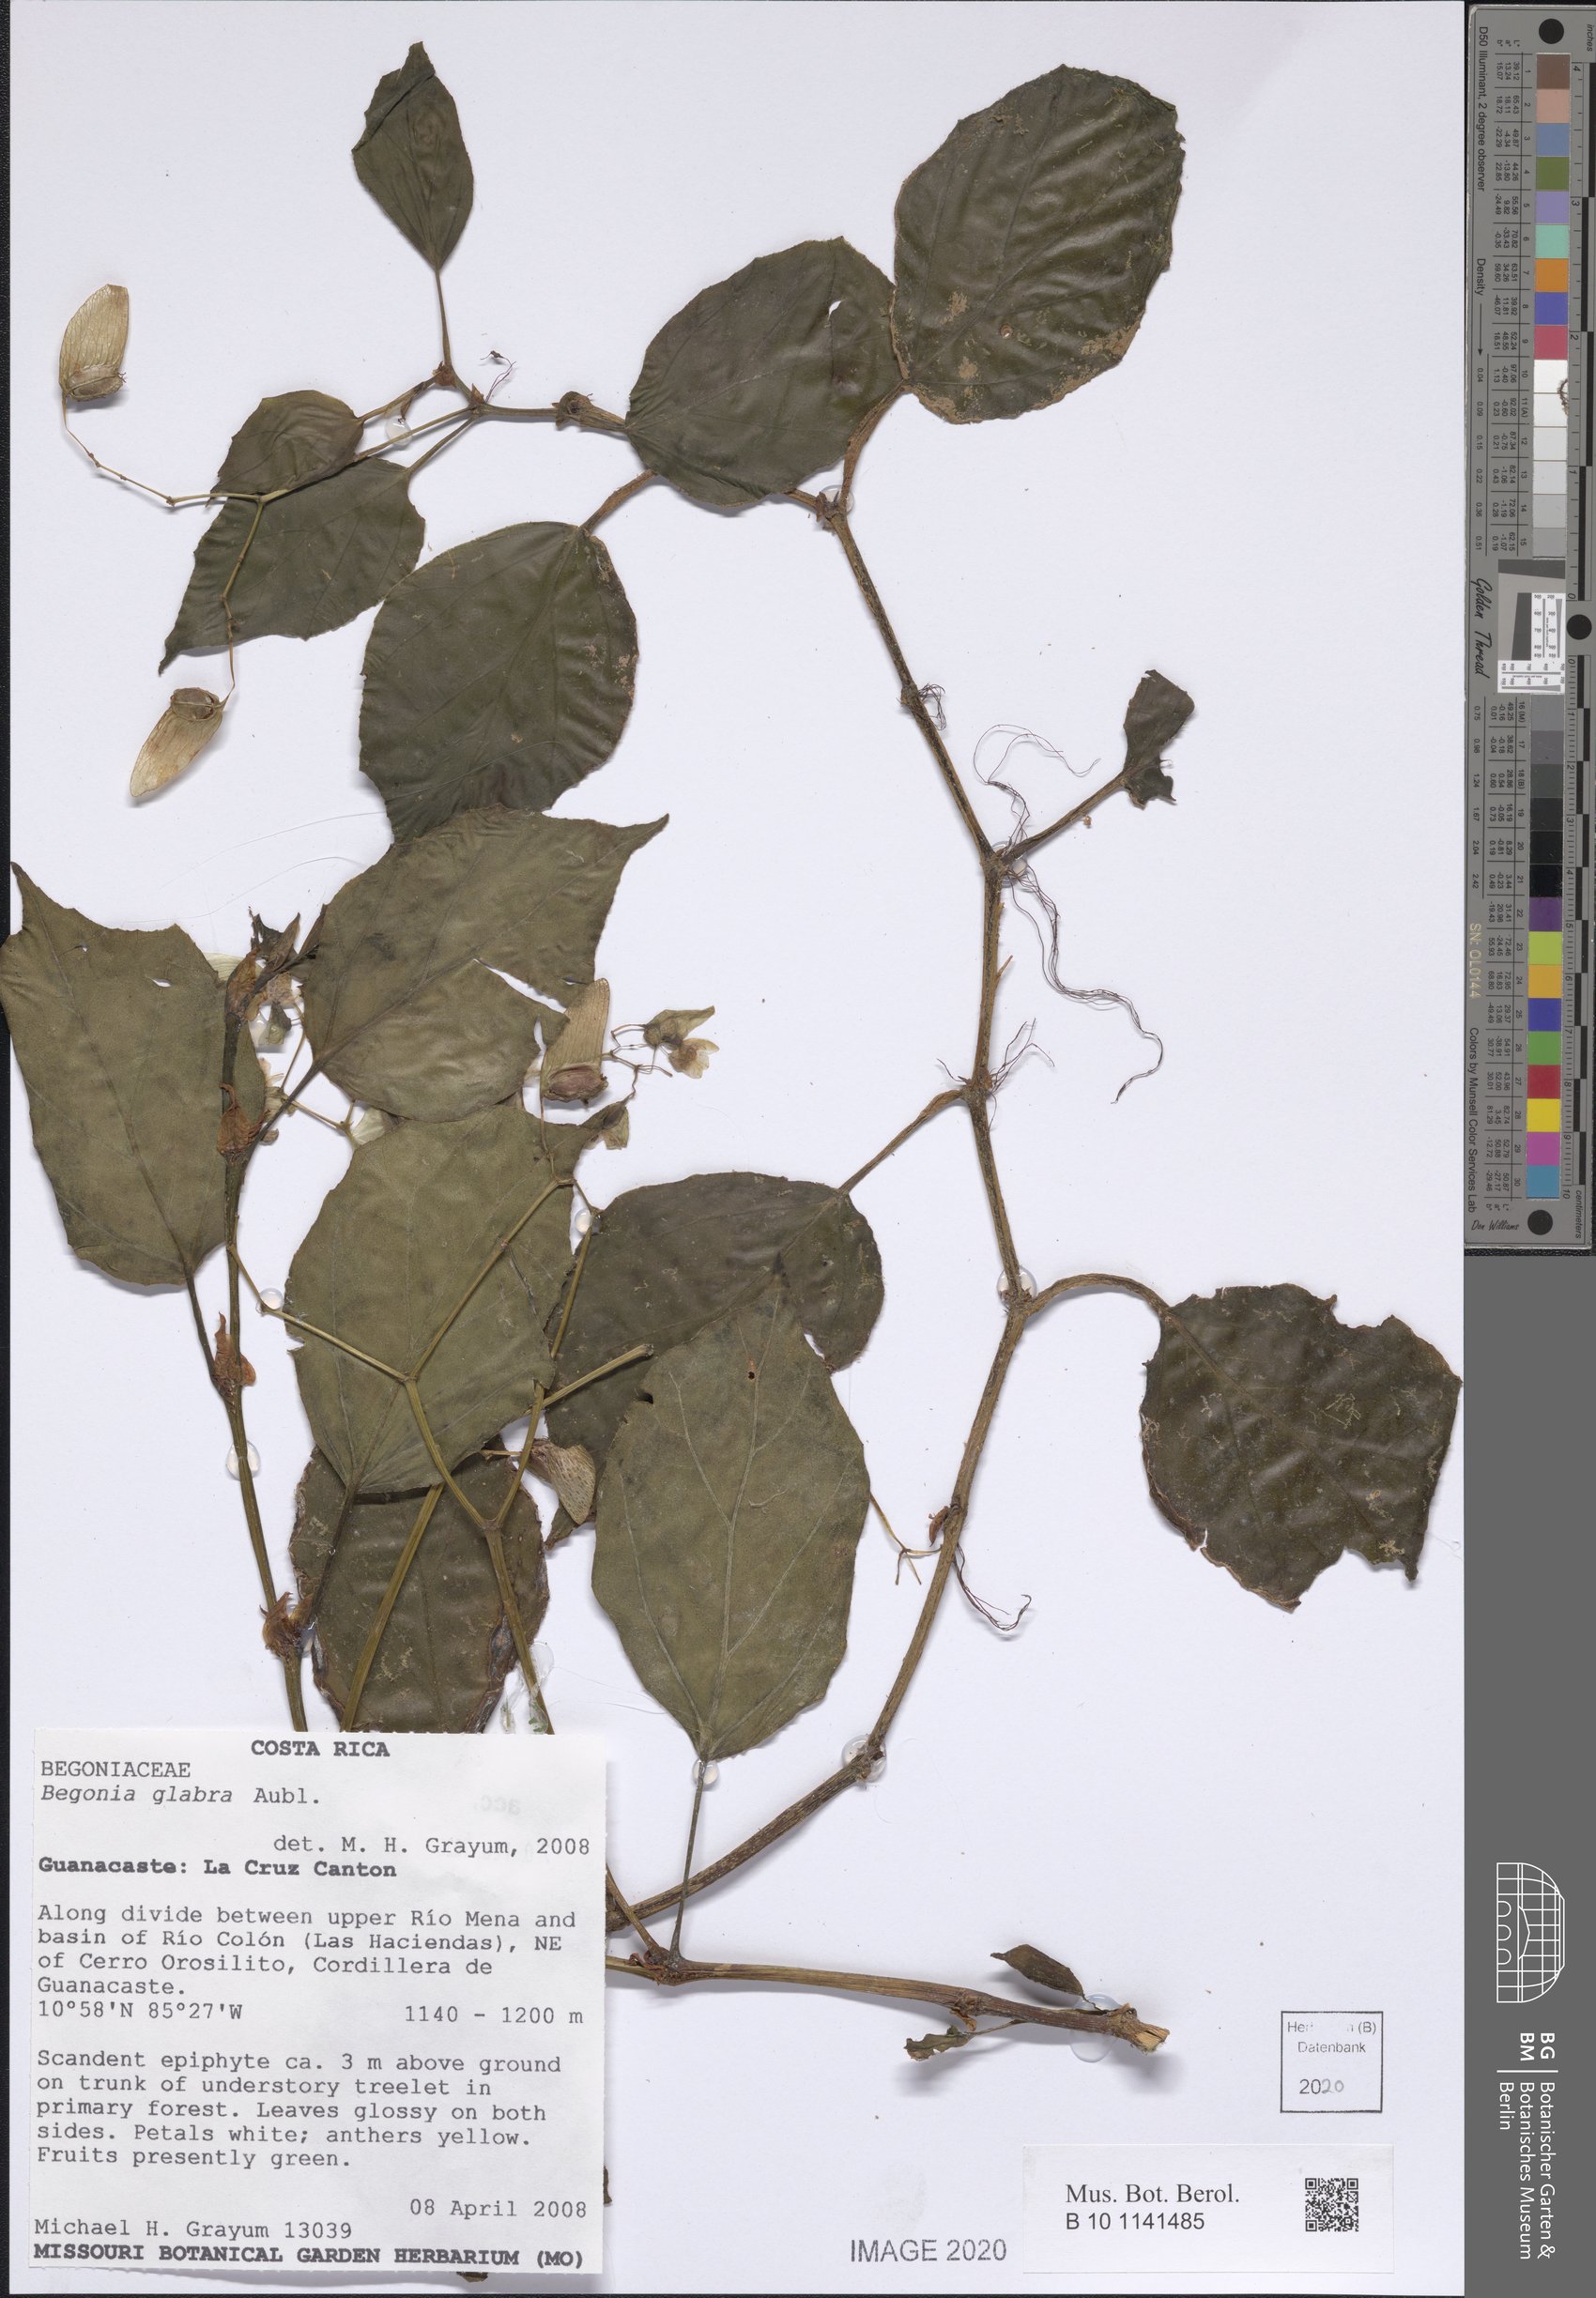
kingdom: Plantae
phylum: Tracheophyta
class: Magnoliopsida
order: Cucurbitales
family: Begoniaceae
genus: Begonia
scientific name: Begonia glabra
